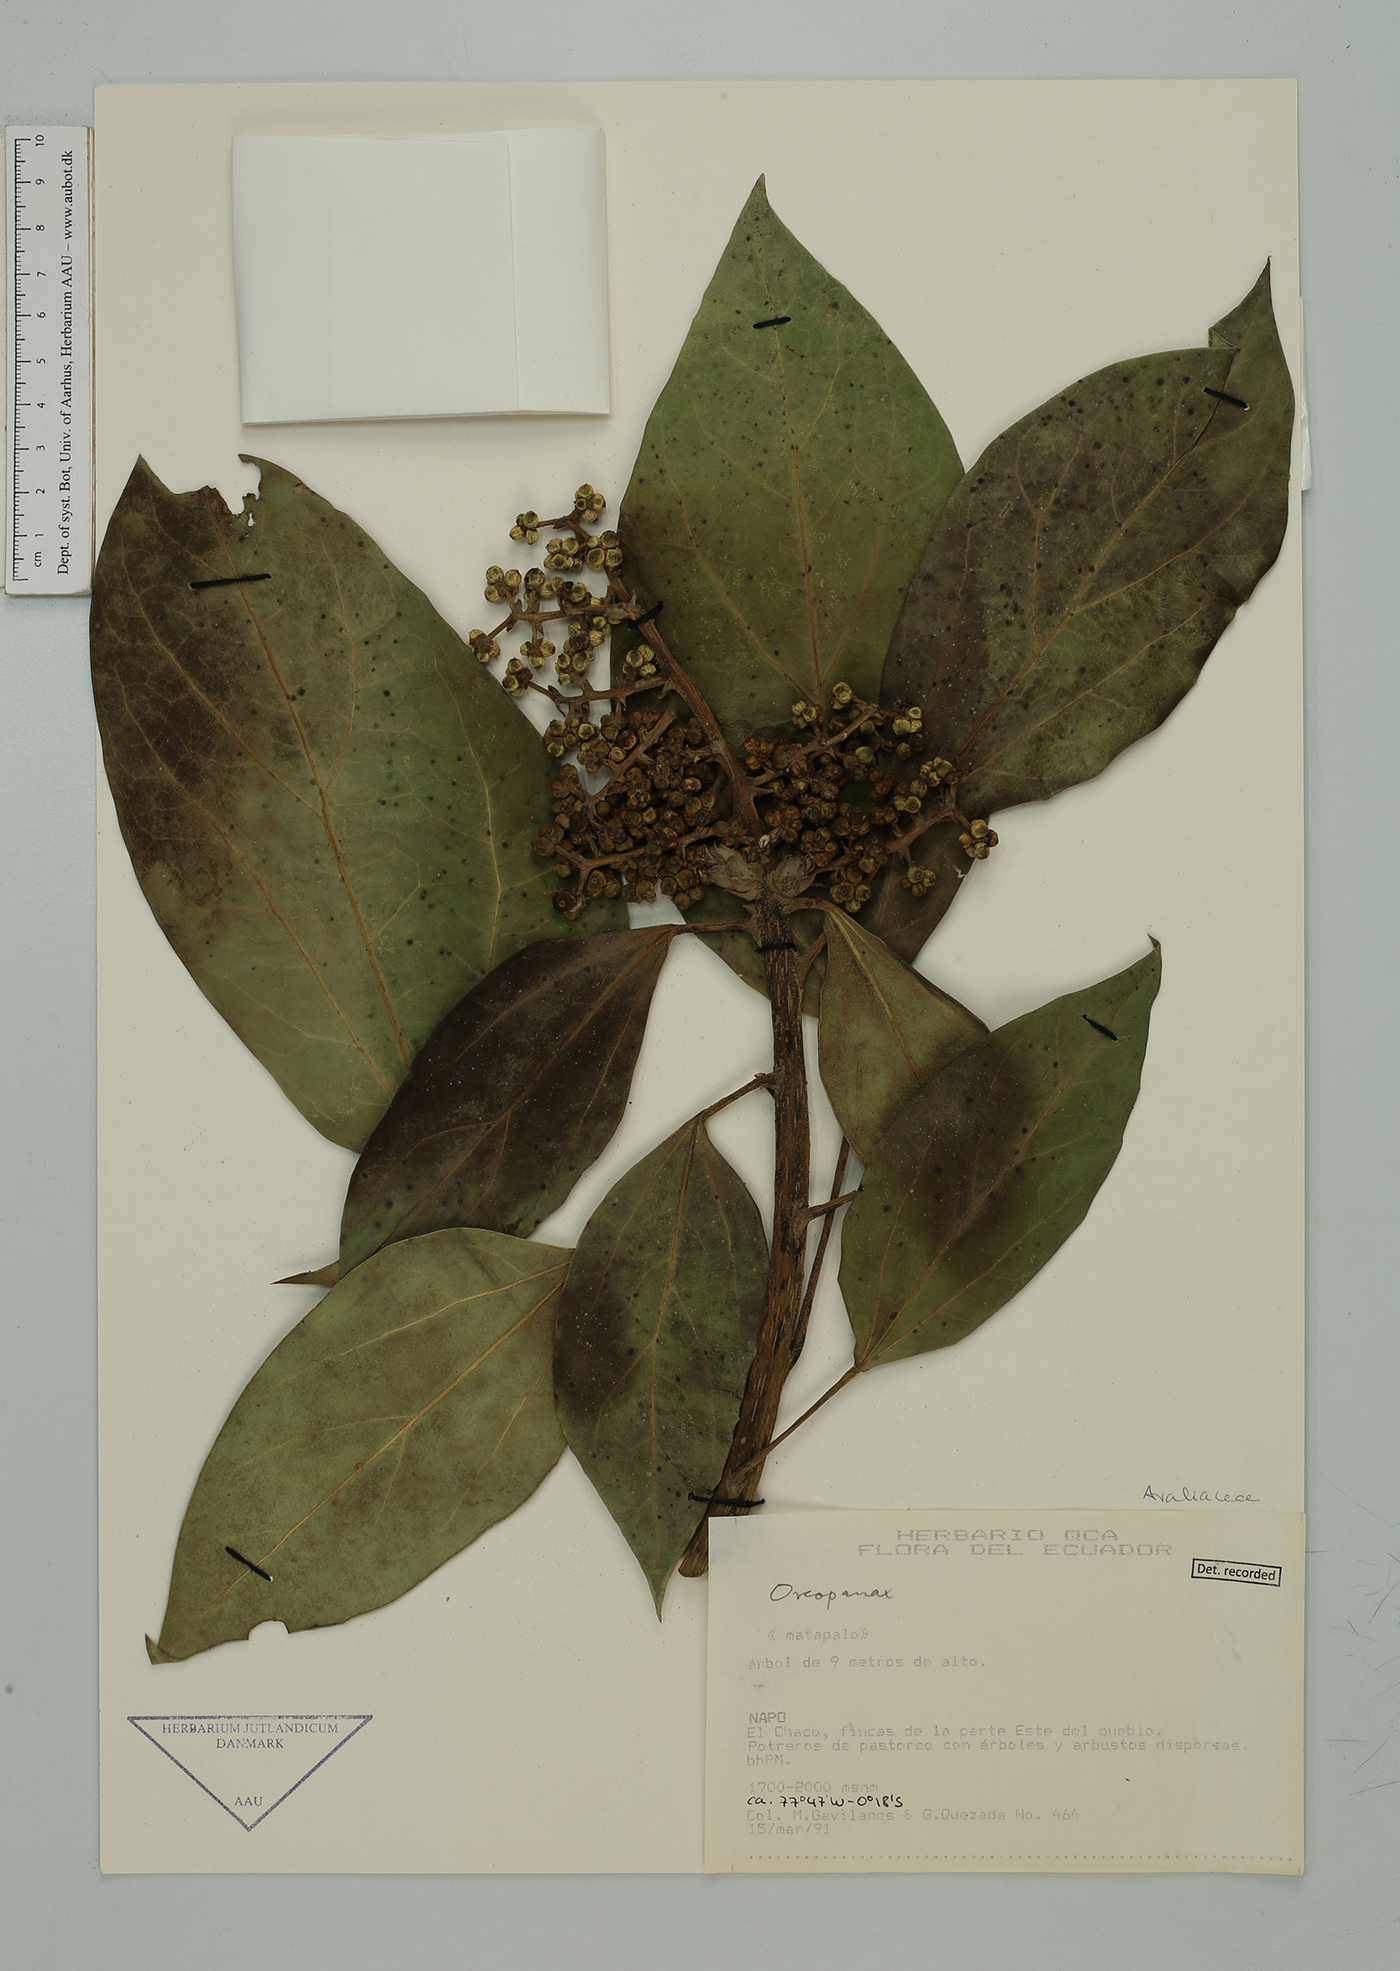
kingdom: Plantae
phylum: Tracheophyta
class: Magnoliopsida
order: Apiales
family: Araliaceae
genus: Oreopanax
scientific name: Oreopanax
